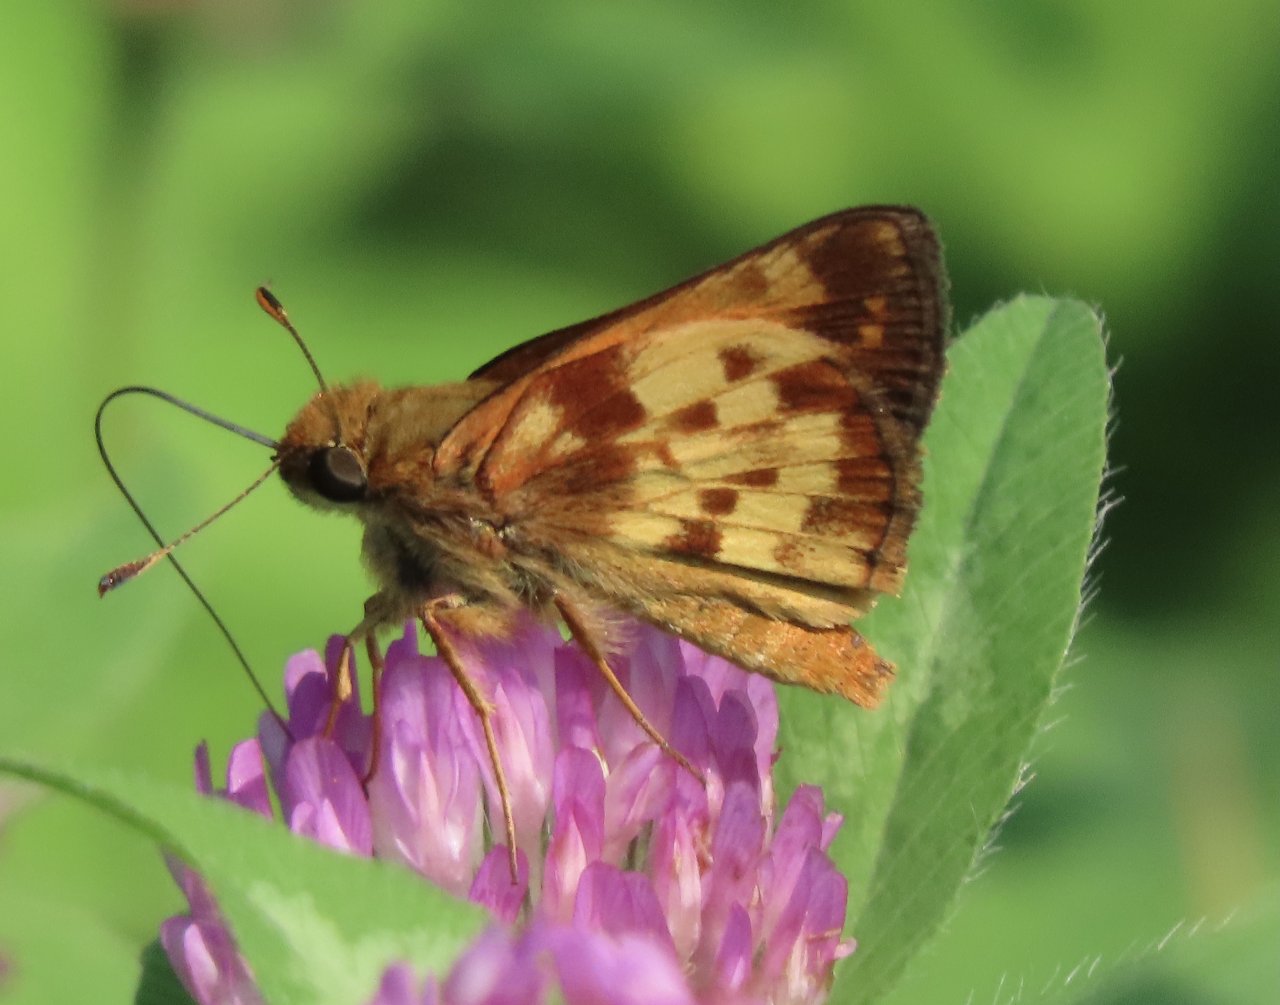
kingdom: Animalia
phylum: Arthropoda
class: Insecta
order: Lepidoptera
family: Hesperiidae
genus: Lon
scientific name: Lon zabulon
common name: Zabulon Skipper
